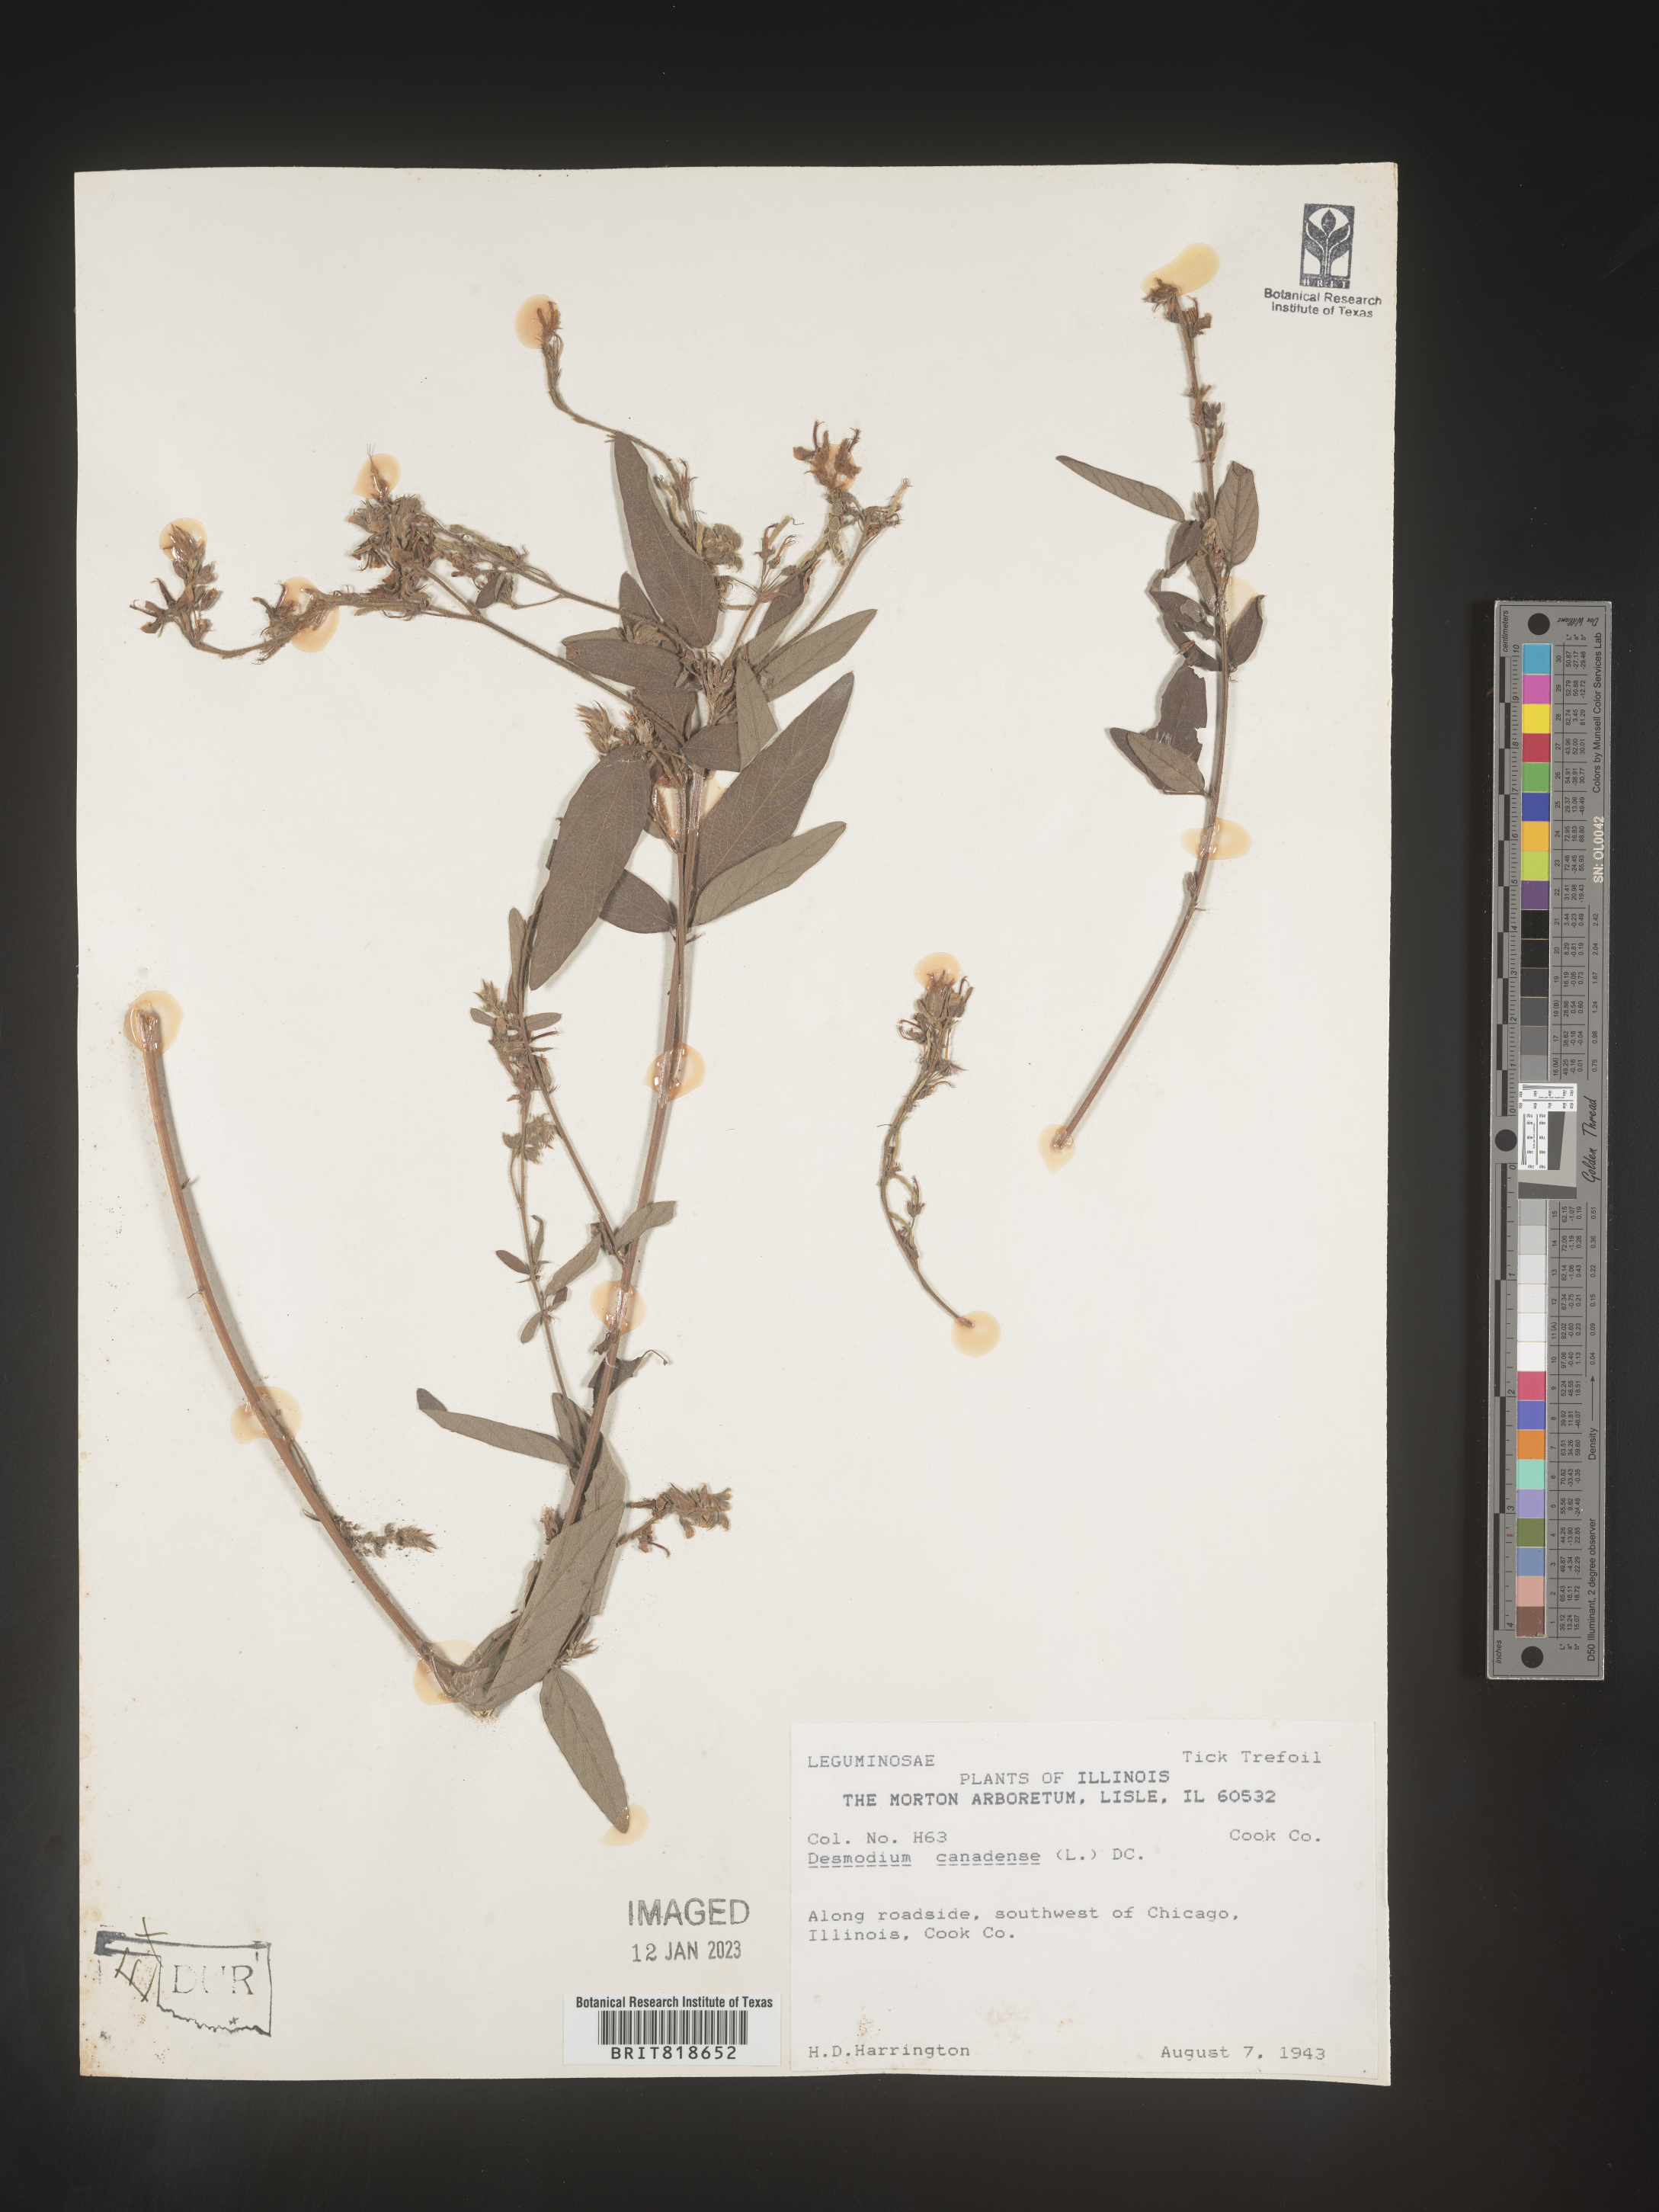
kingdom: Plantae
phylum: Tracheophyta
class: Magnoliopsida
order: Fabales
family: Fabaceae
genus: Desmodium
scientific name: Desmodium canadense
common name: Canada tick-trefoil
